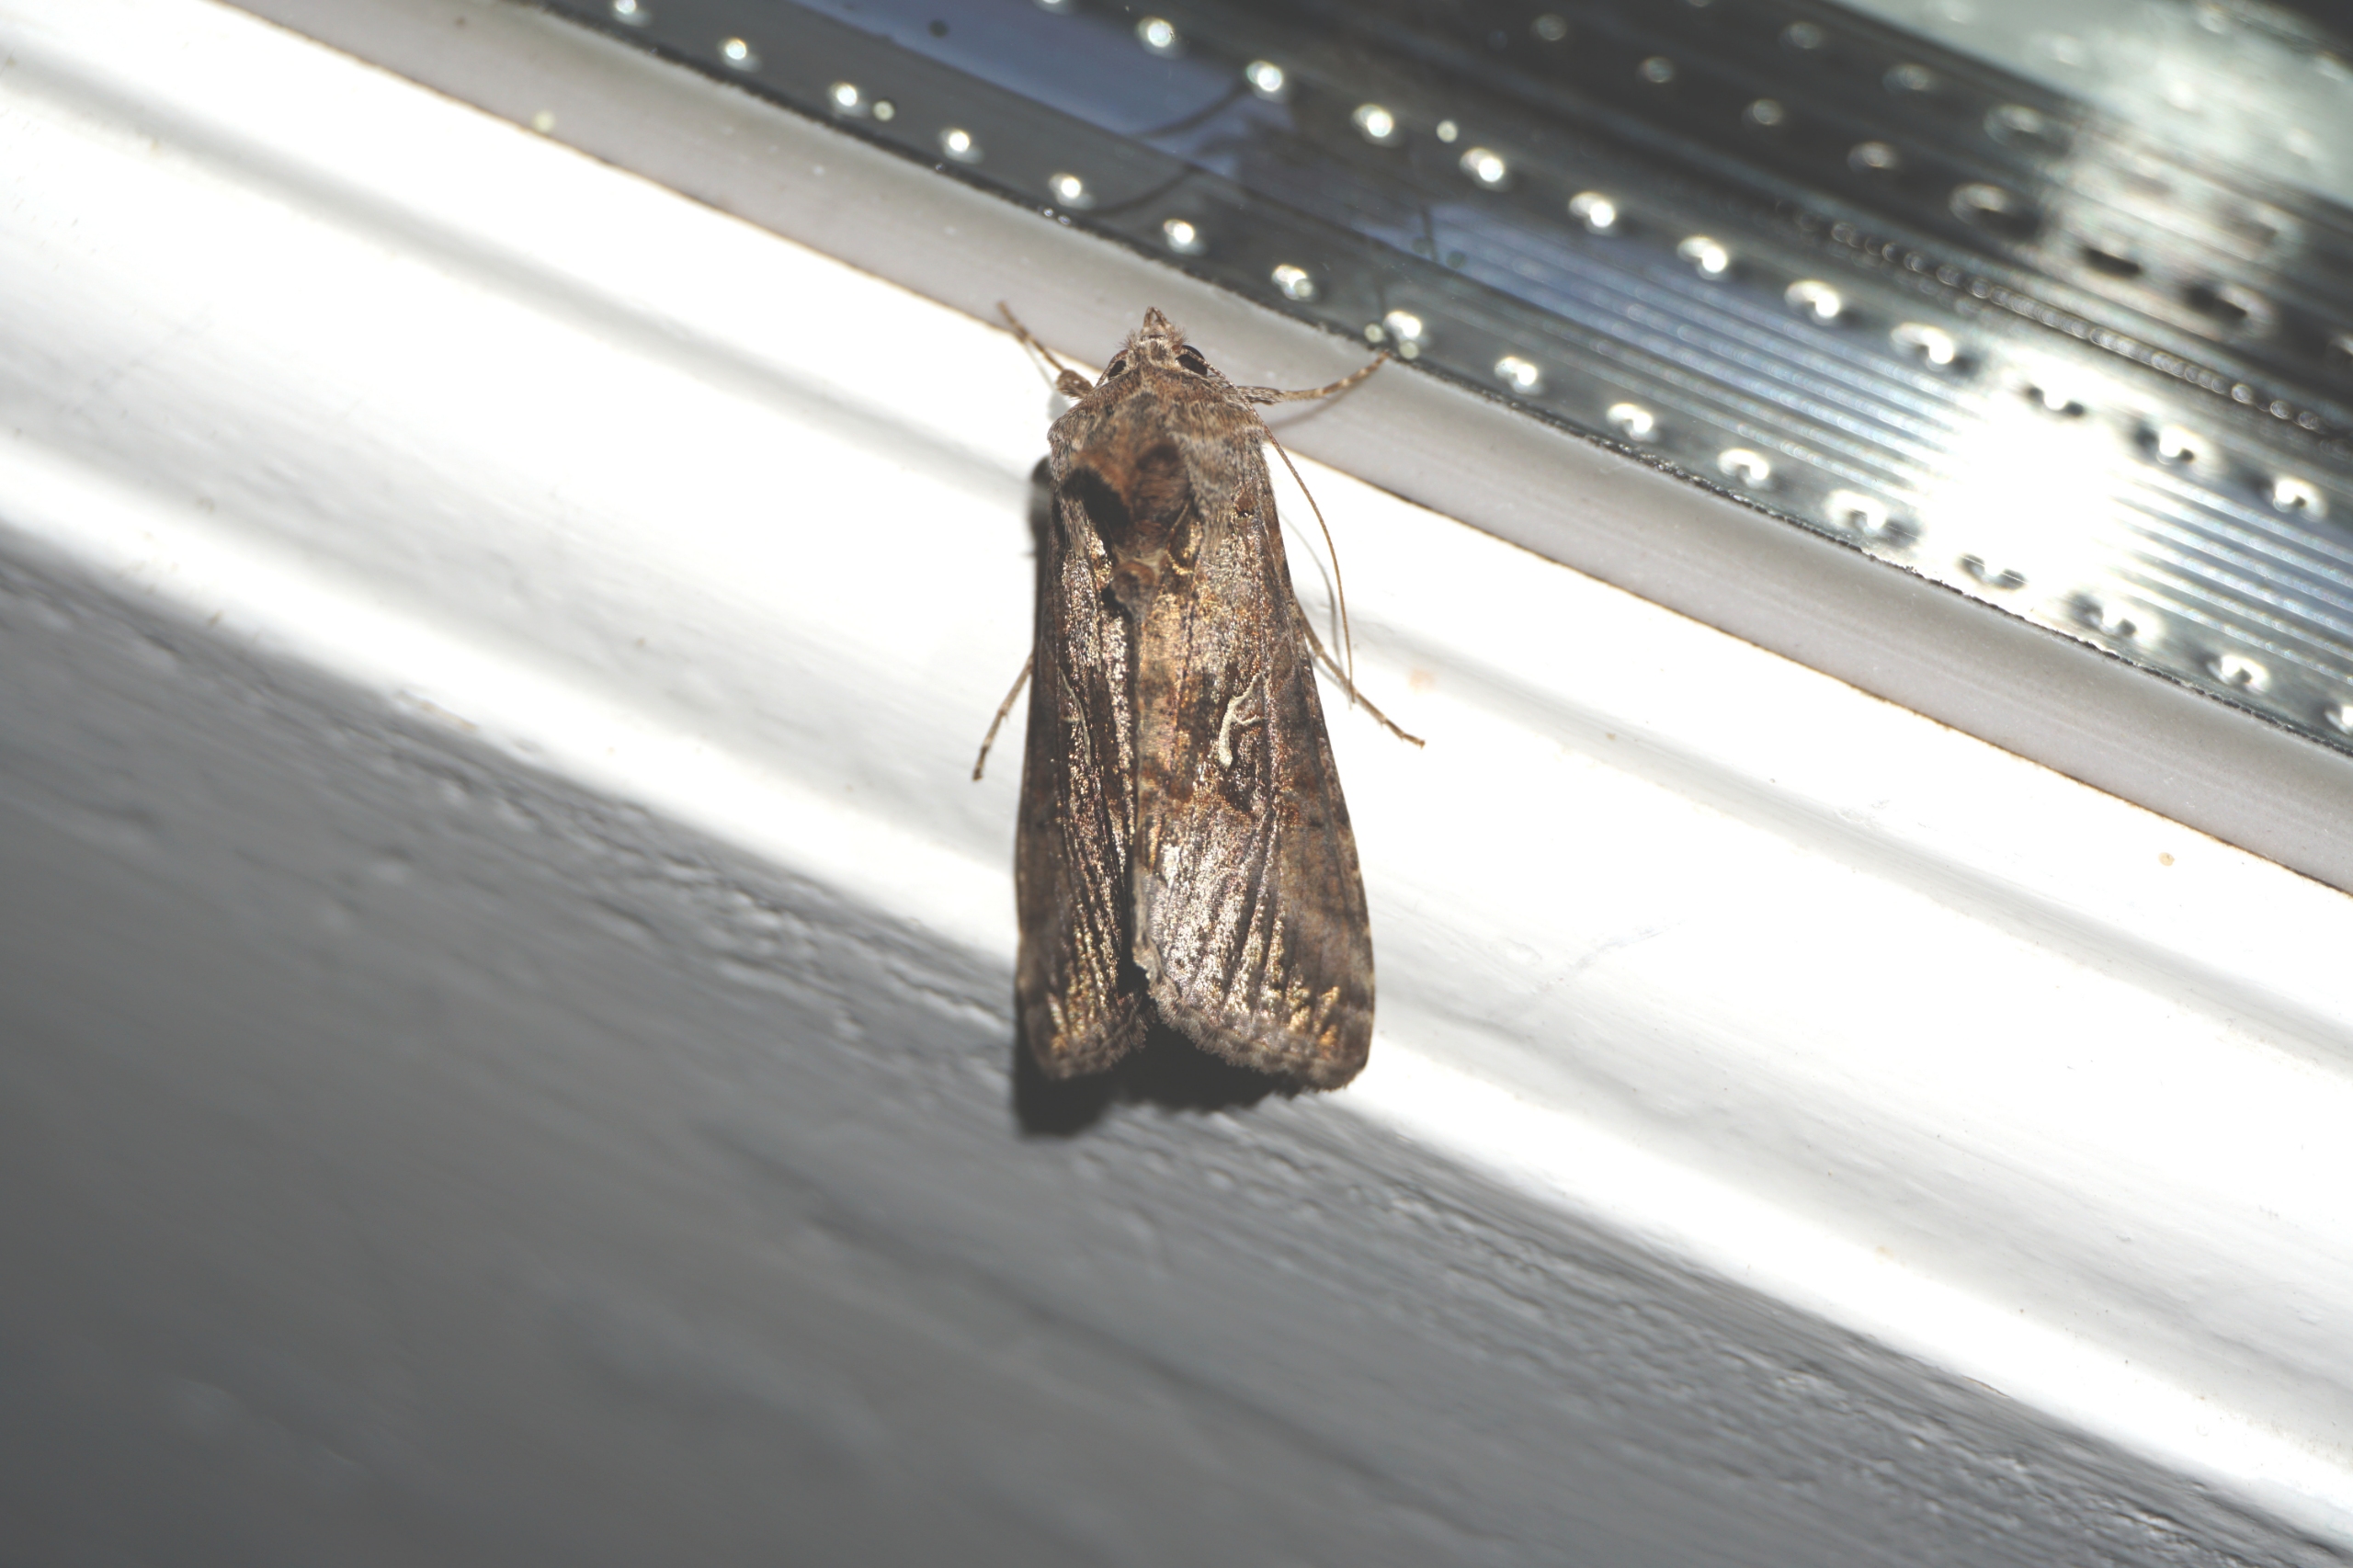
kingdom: Animalia
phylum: Arthropoda
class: Insecta
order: Lepidoptera
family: Noctuidae
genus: Autographa
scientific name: Autographa gamma
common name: Gammaugle
